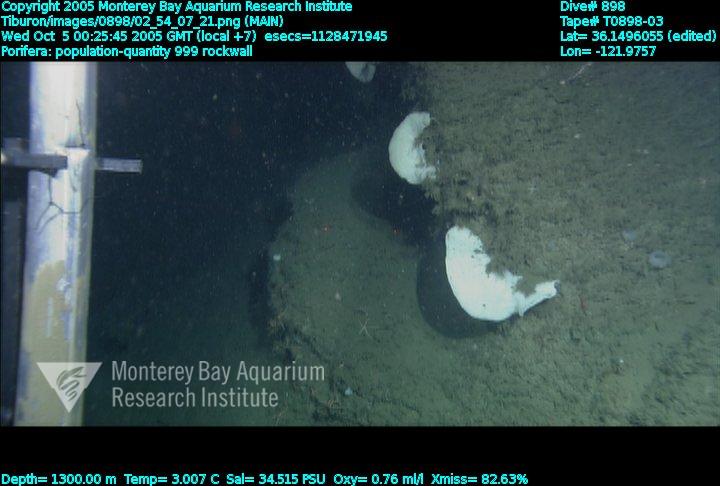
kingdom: Animalia
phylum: Porifera
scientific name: Porifera
